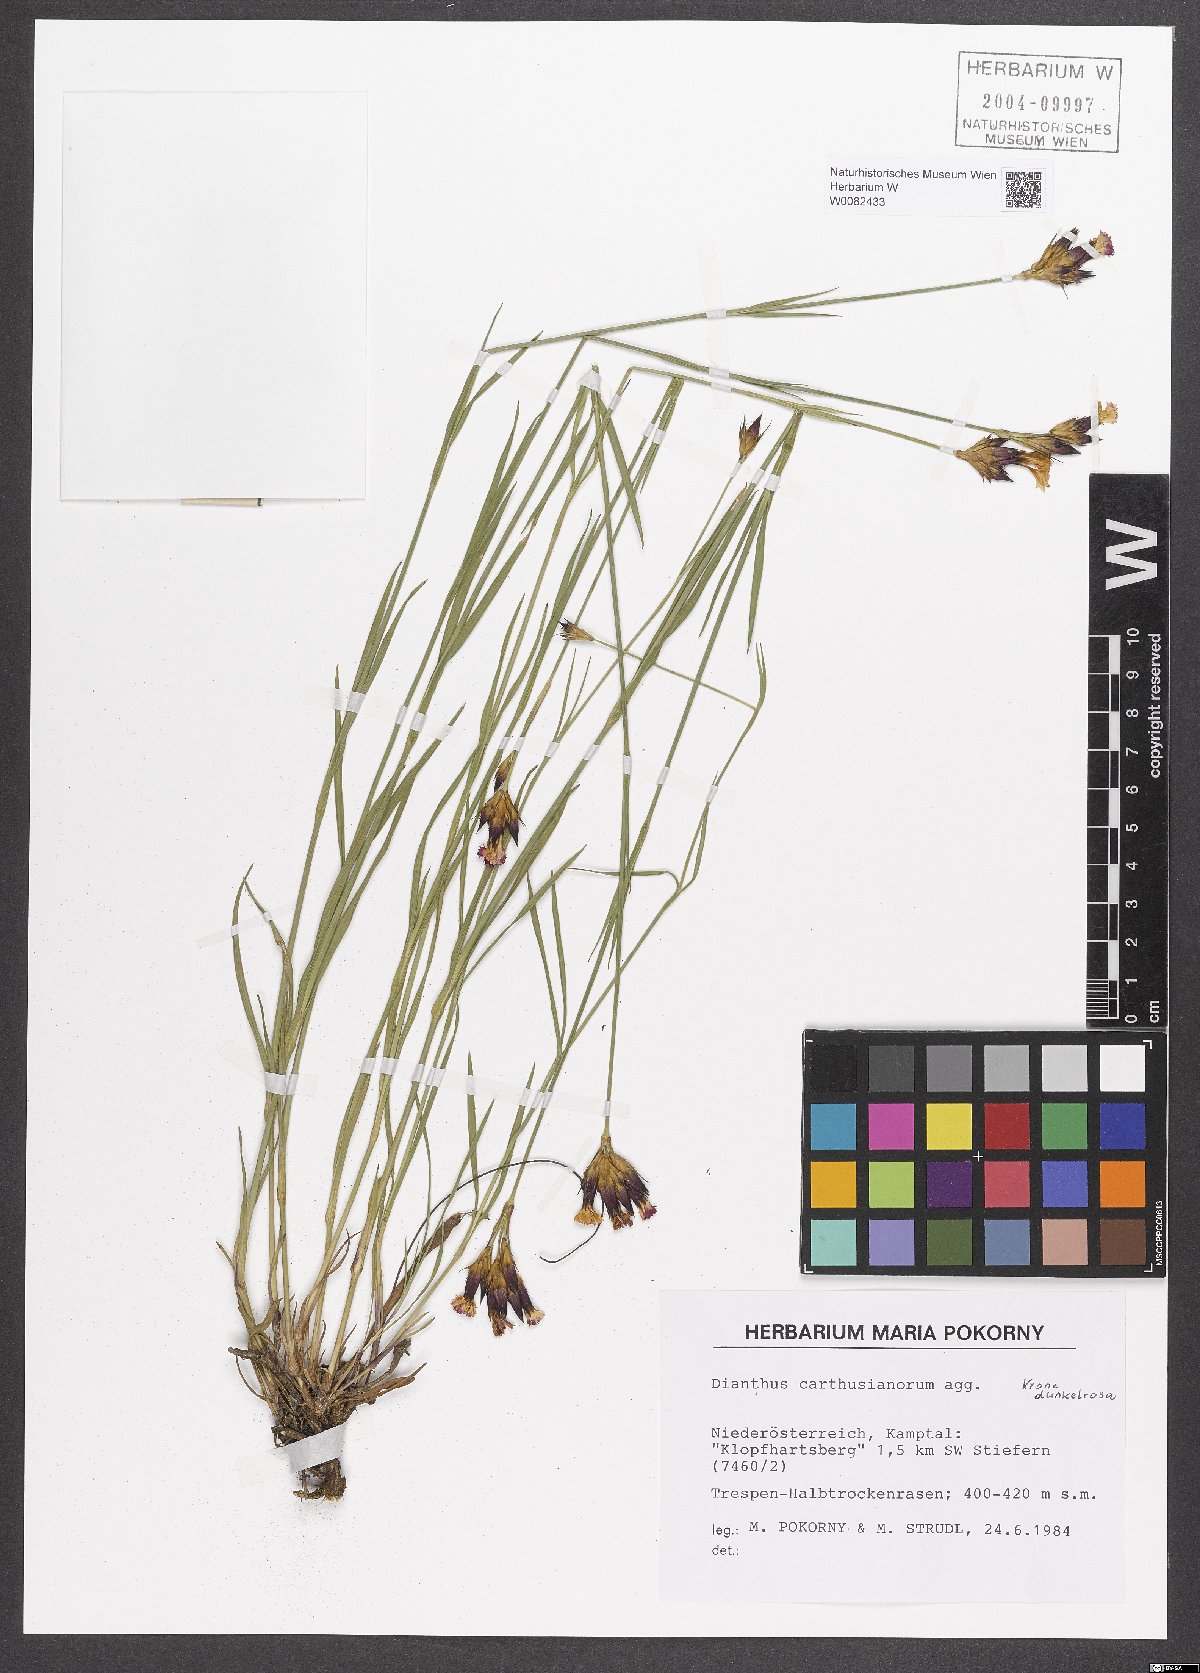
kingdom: Plantae
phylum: Tracheophyta
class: Magnoliopsida
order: Caryophyllales
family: Caryophyllaceae
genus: Dianthus
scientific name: Dianthus carthusianorum
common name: Carthusian pink
